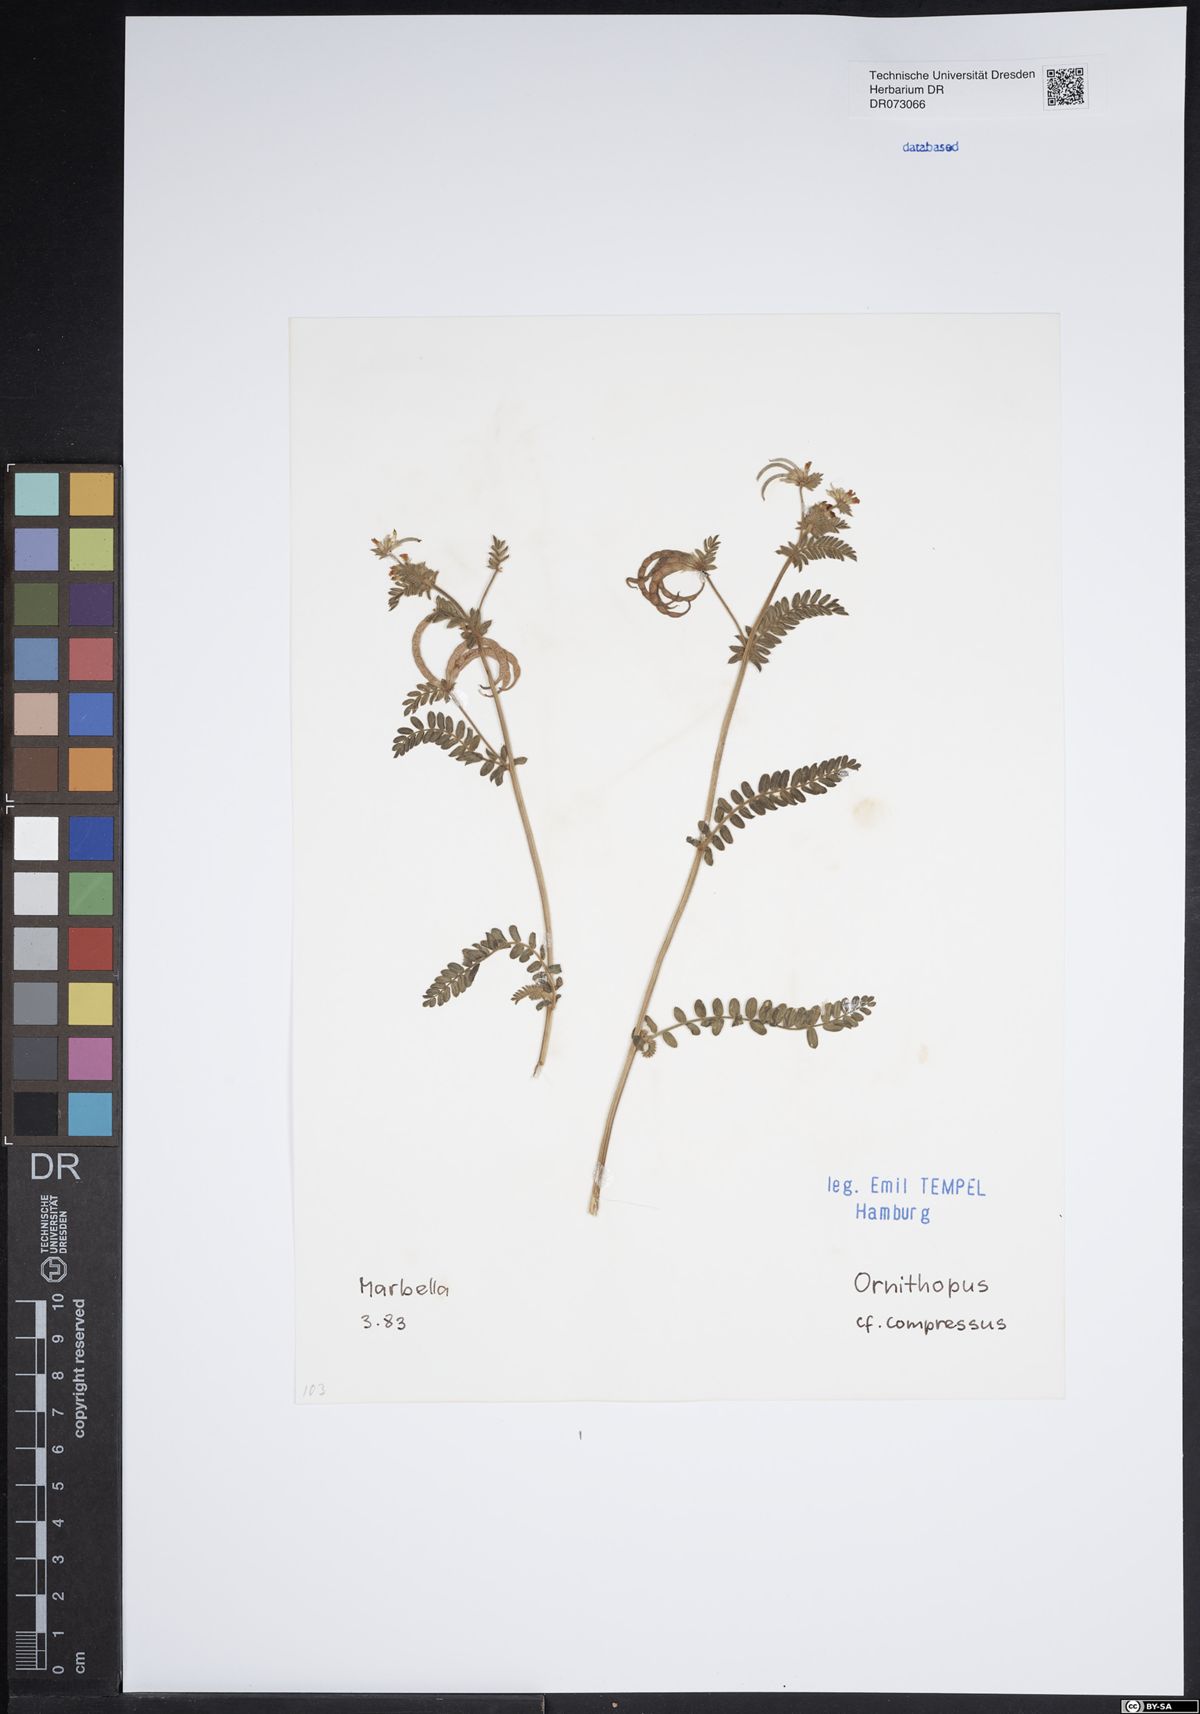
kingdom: Plantae
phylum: Tracheophyta
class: Magnoliopsida
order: Fabales
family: Fabaceae
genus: Ornithopus
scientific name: Ornithopus compressus
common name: Yellow serradella
